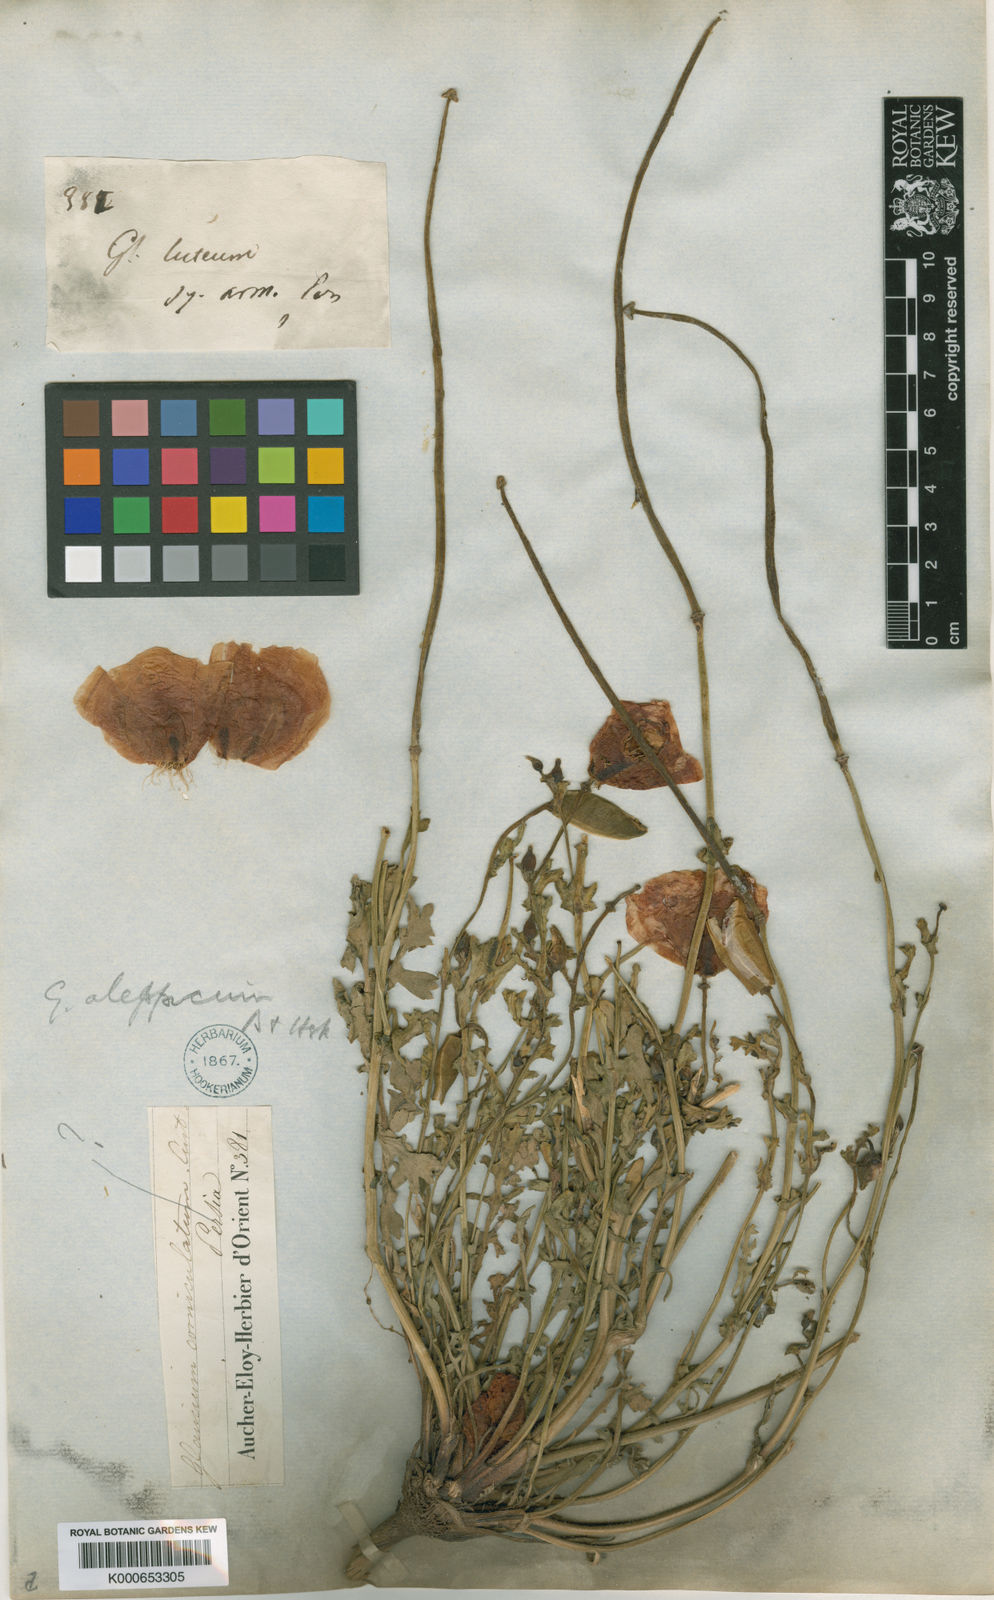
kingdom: Plantae
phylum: Tracheophyta
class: Magnoliopsida
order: Ranunculales
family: Papaveraceae
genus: Glaucium
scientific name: Glaucium aleppicum
